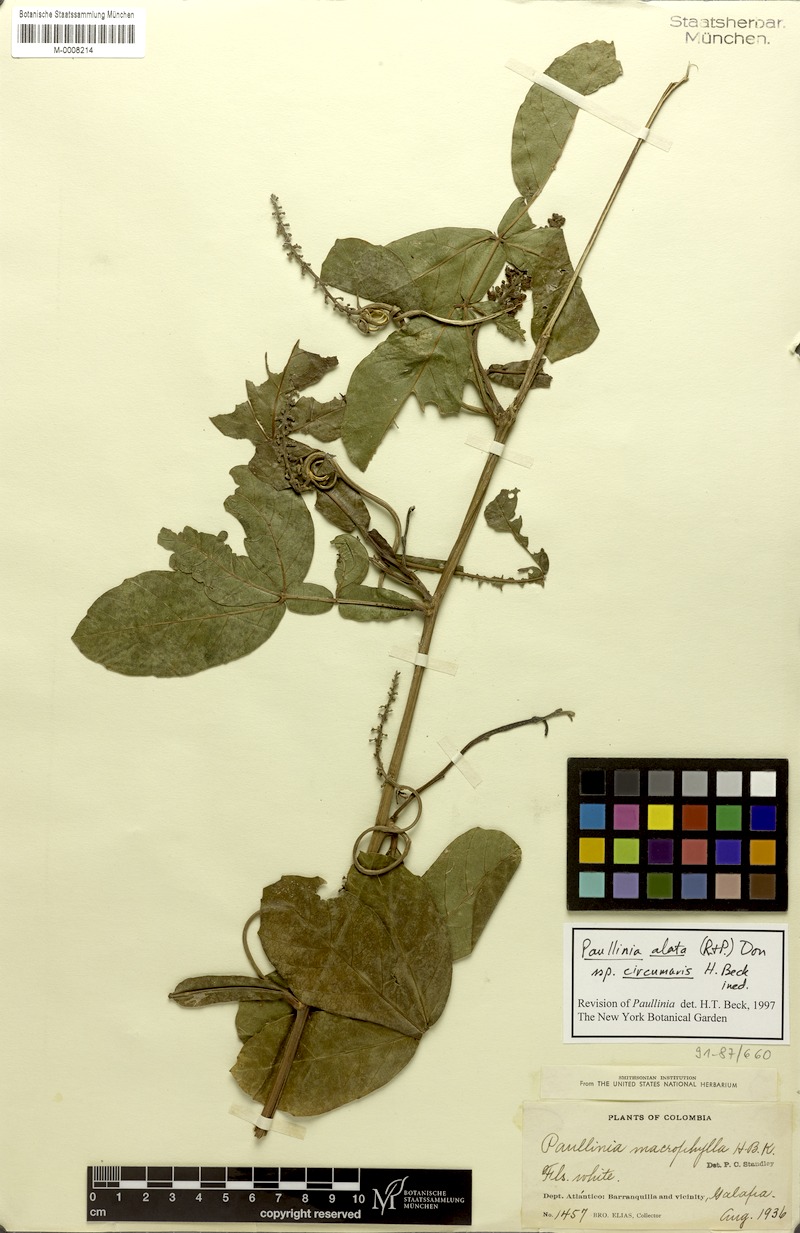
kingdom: Plantae
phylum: Tracheophyta
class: Magnoliopsida
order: Sapindales
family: Sapindaceae
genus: Paullinia
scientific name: Paullinia alata
